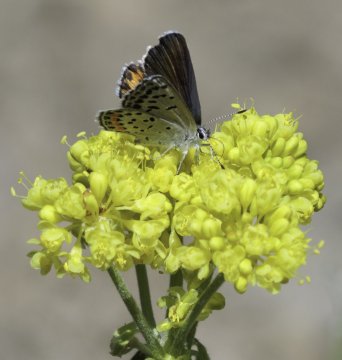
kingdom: Animalia
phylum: Arthropoda
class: Insecta
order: Lepidoptera
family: Lycaenidae
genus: Plebejus
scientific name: Plebejus lupini
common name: Lupine Blue
